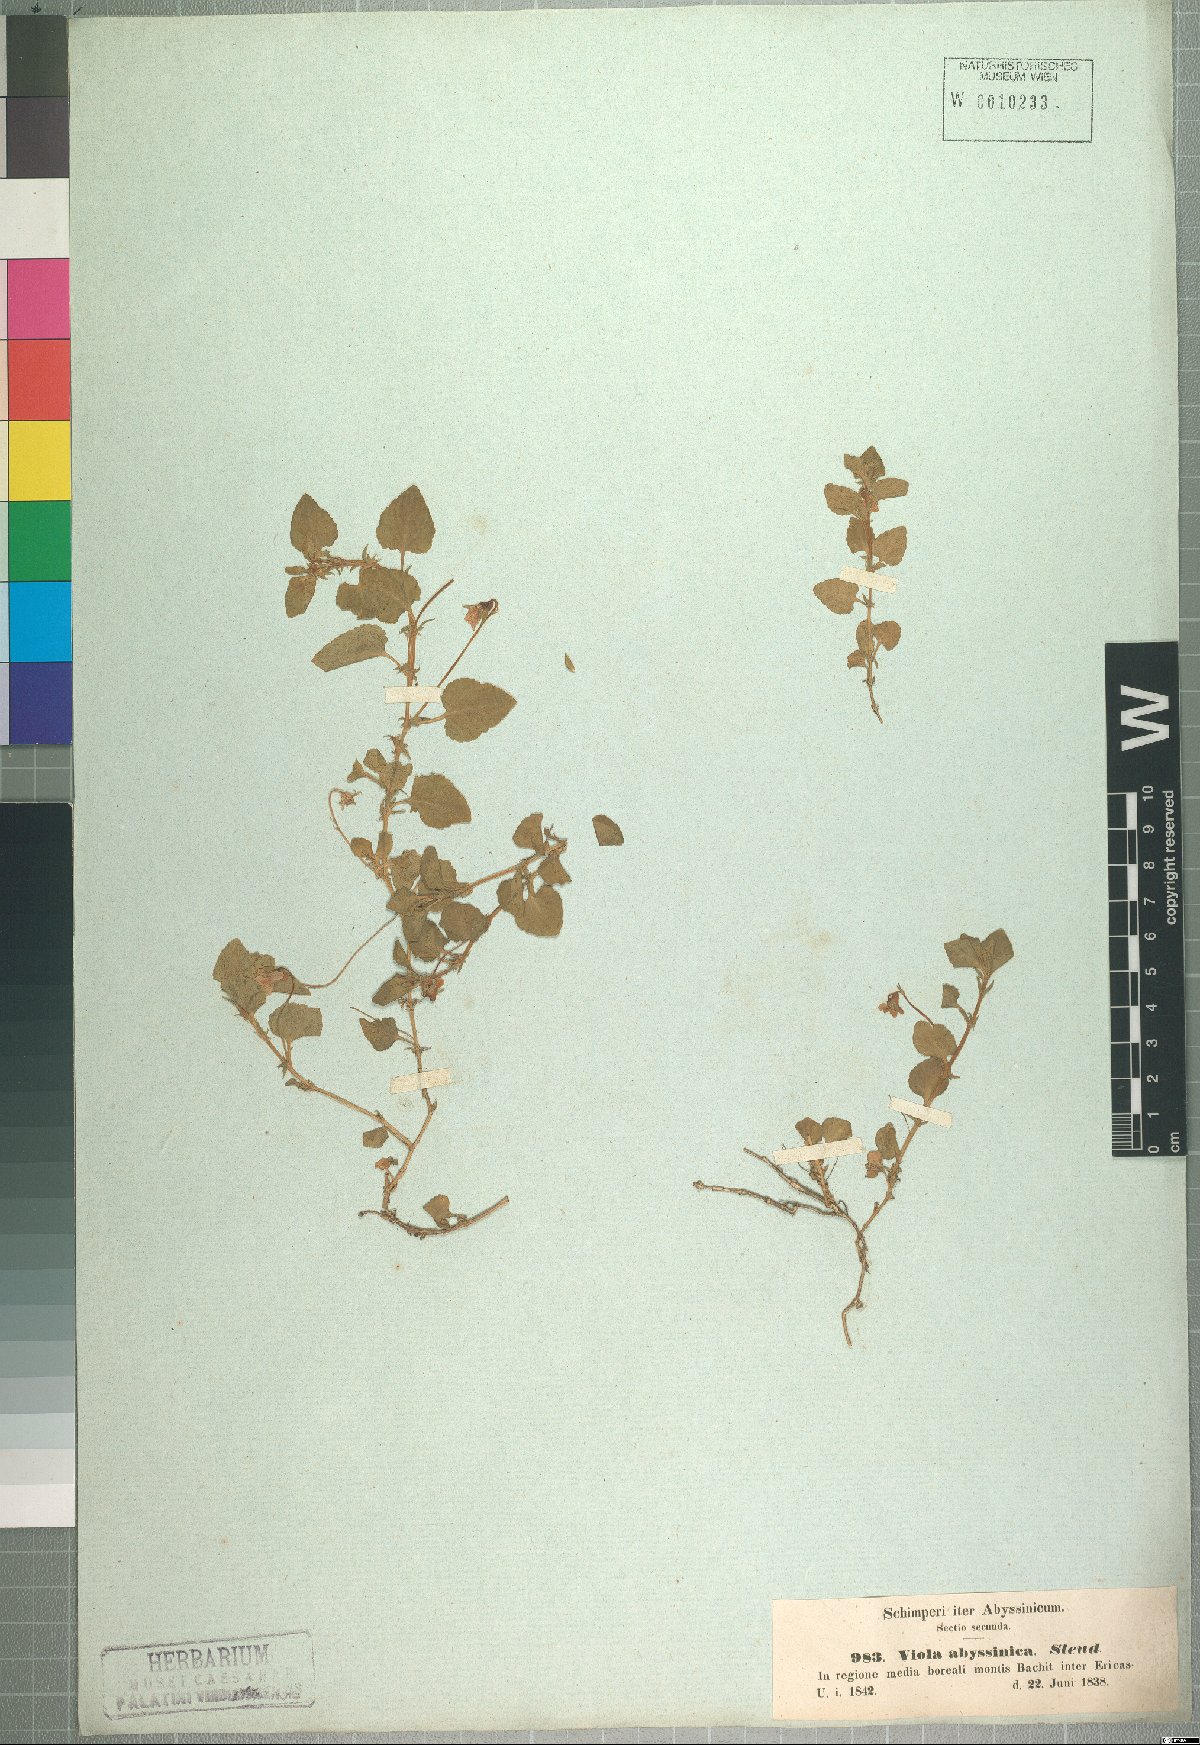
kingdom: Plantae
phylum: Tracheophyta
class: Magnoliopsida
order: Malpighiales
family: Violaceae
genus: Viola
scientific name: Viola abyssinica
